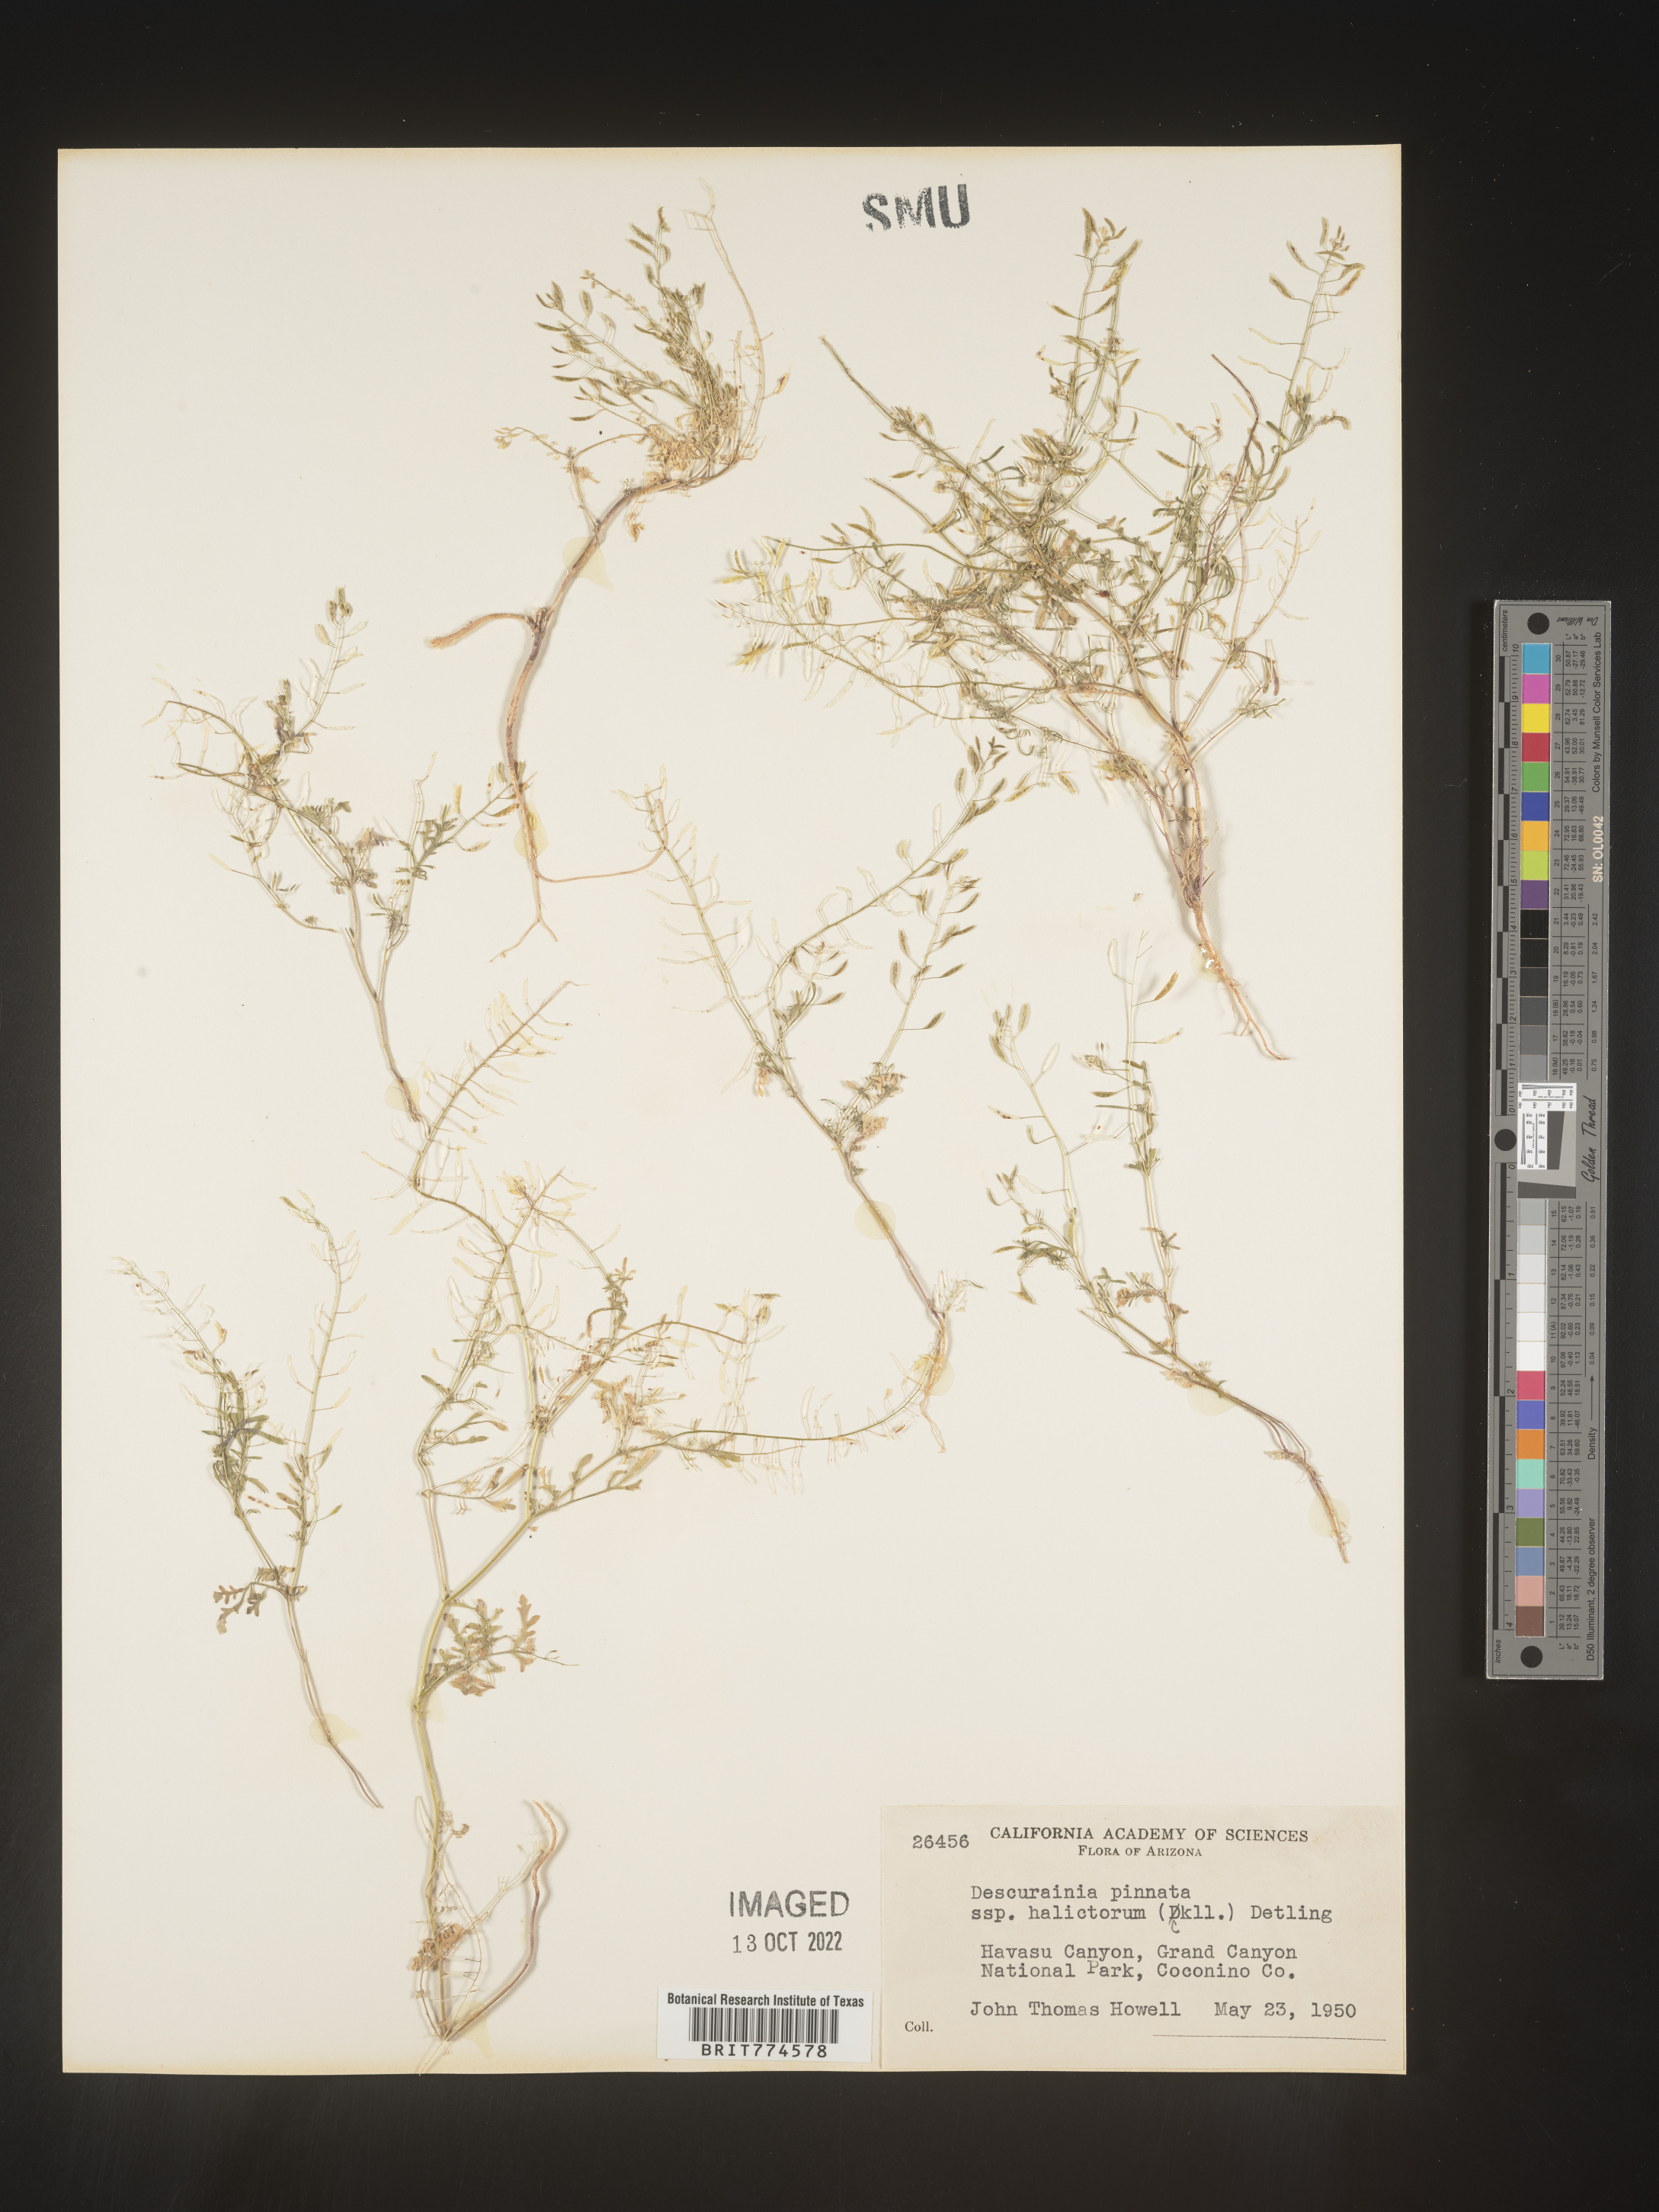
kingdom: Plantae
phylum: Tracheophyta
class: Magnoliopsida
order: Brassicales
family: Brassicaceae
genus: Descurainia
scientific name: Descurainia pinnata
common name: Western tansy mustard
